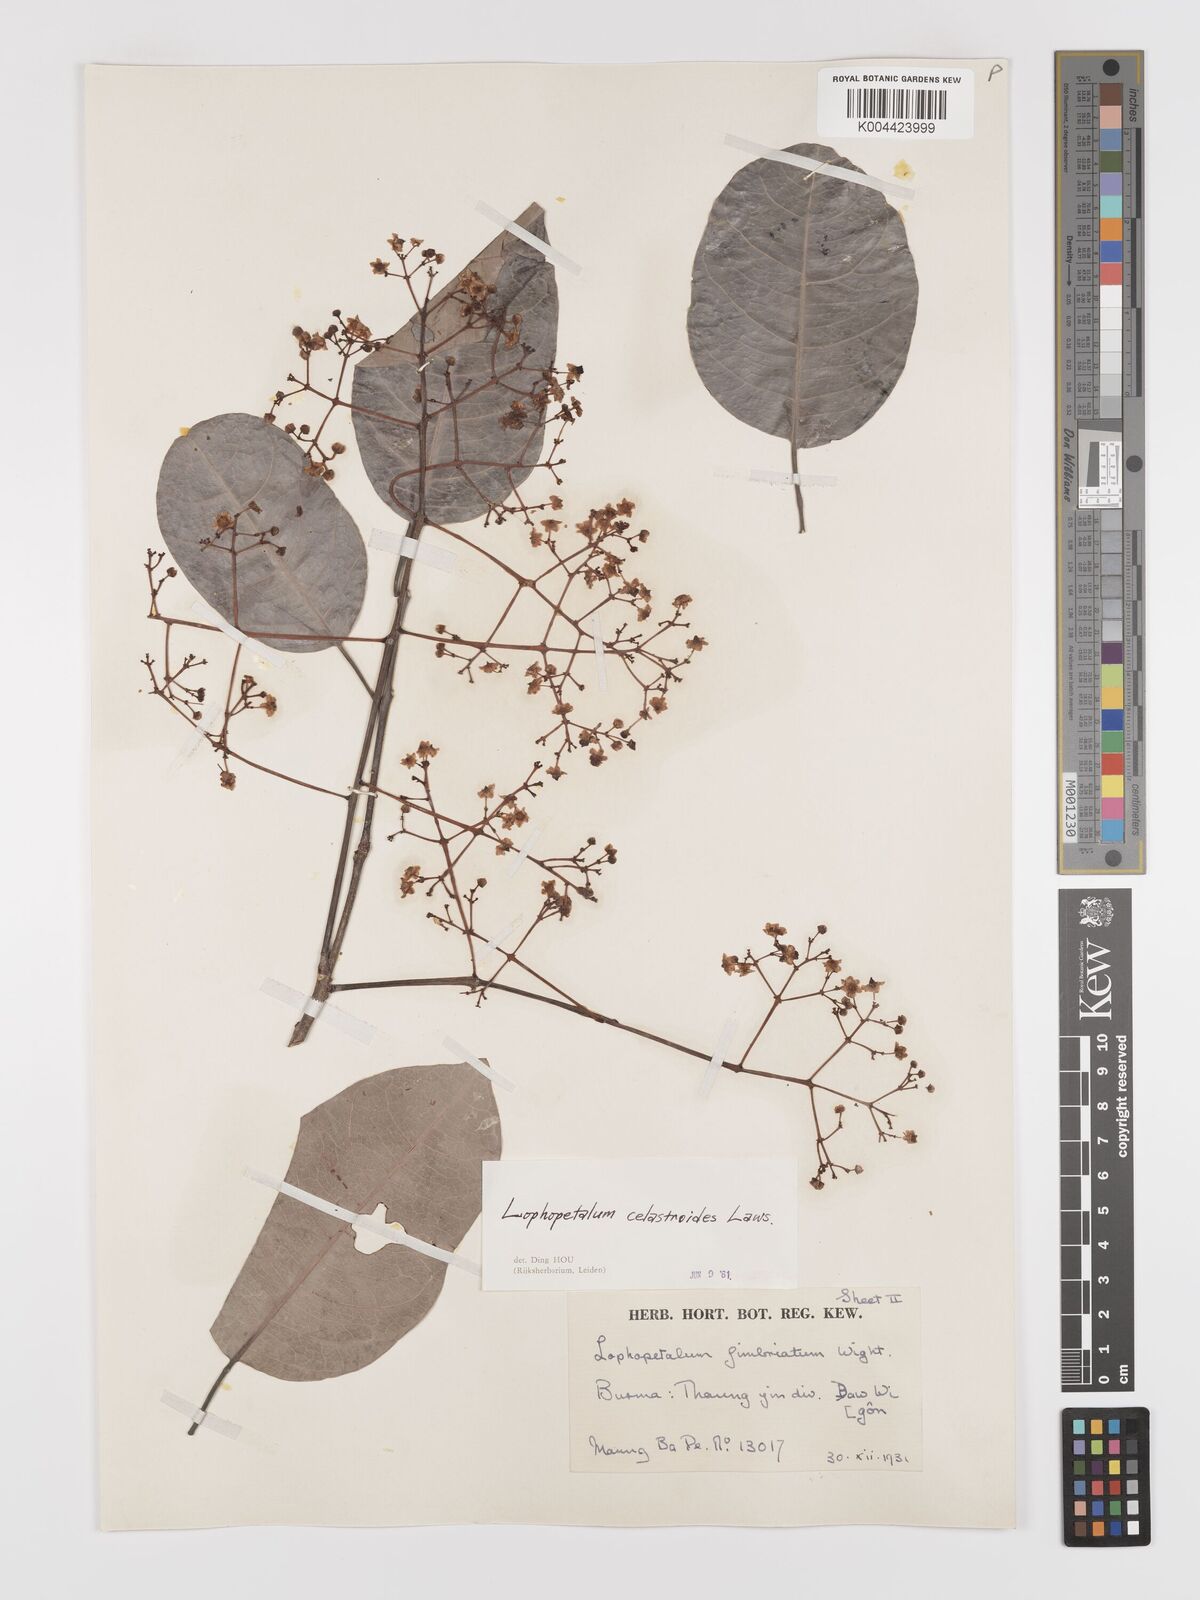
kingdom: Plantae
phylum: Tracheophyta
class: Magnoliopsida
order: Celastrales
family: Celastraceae
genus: Lophopetalum
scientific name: Lophopetalum wightianum
